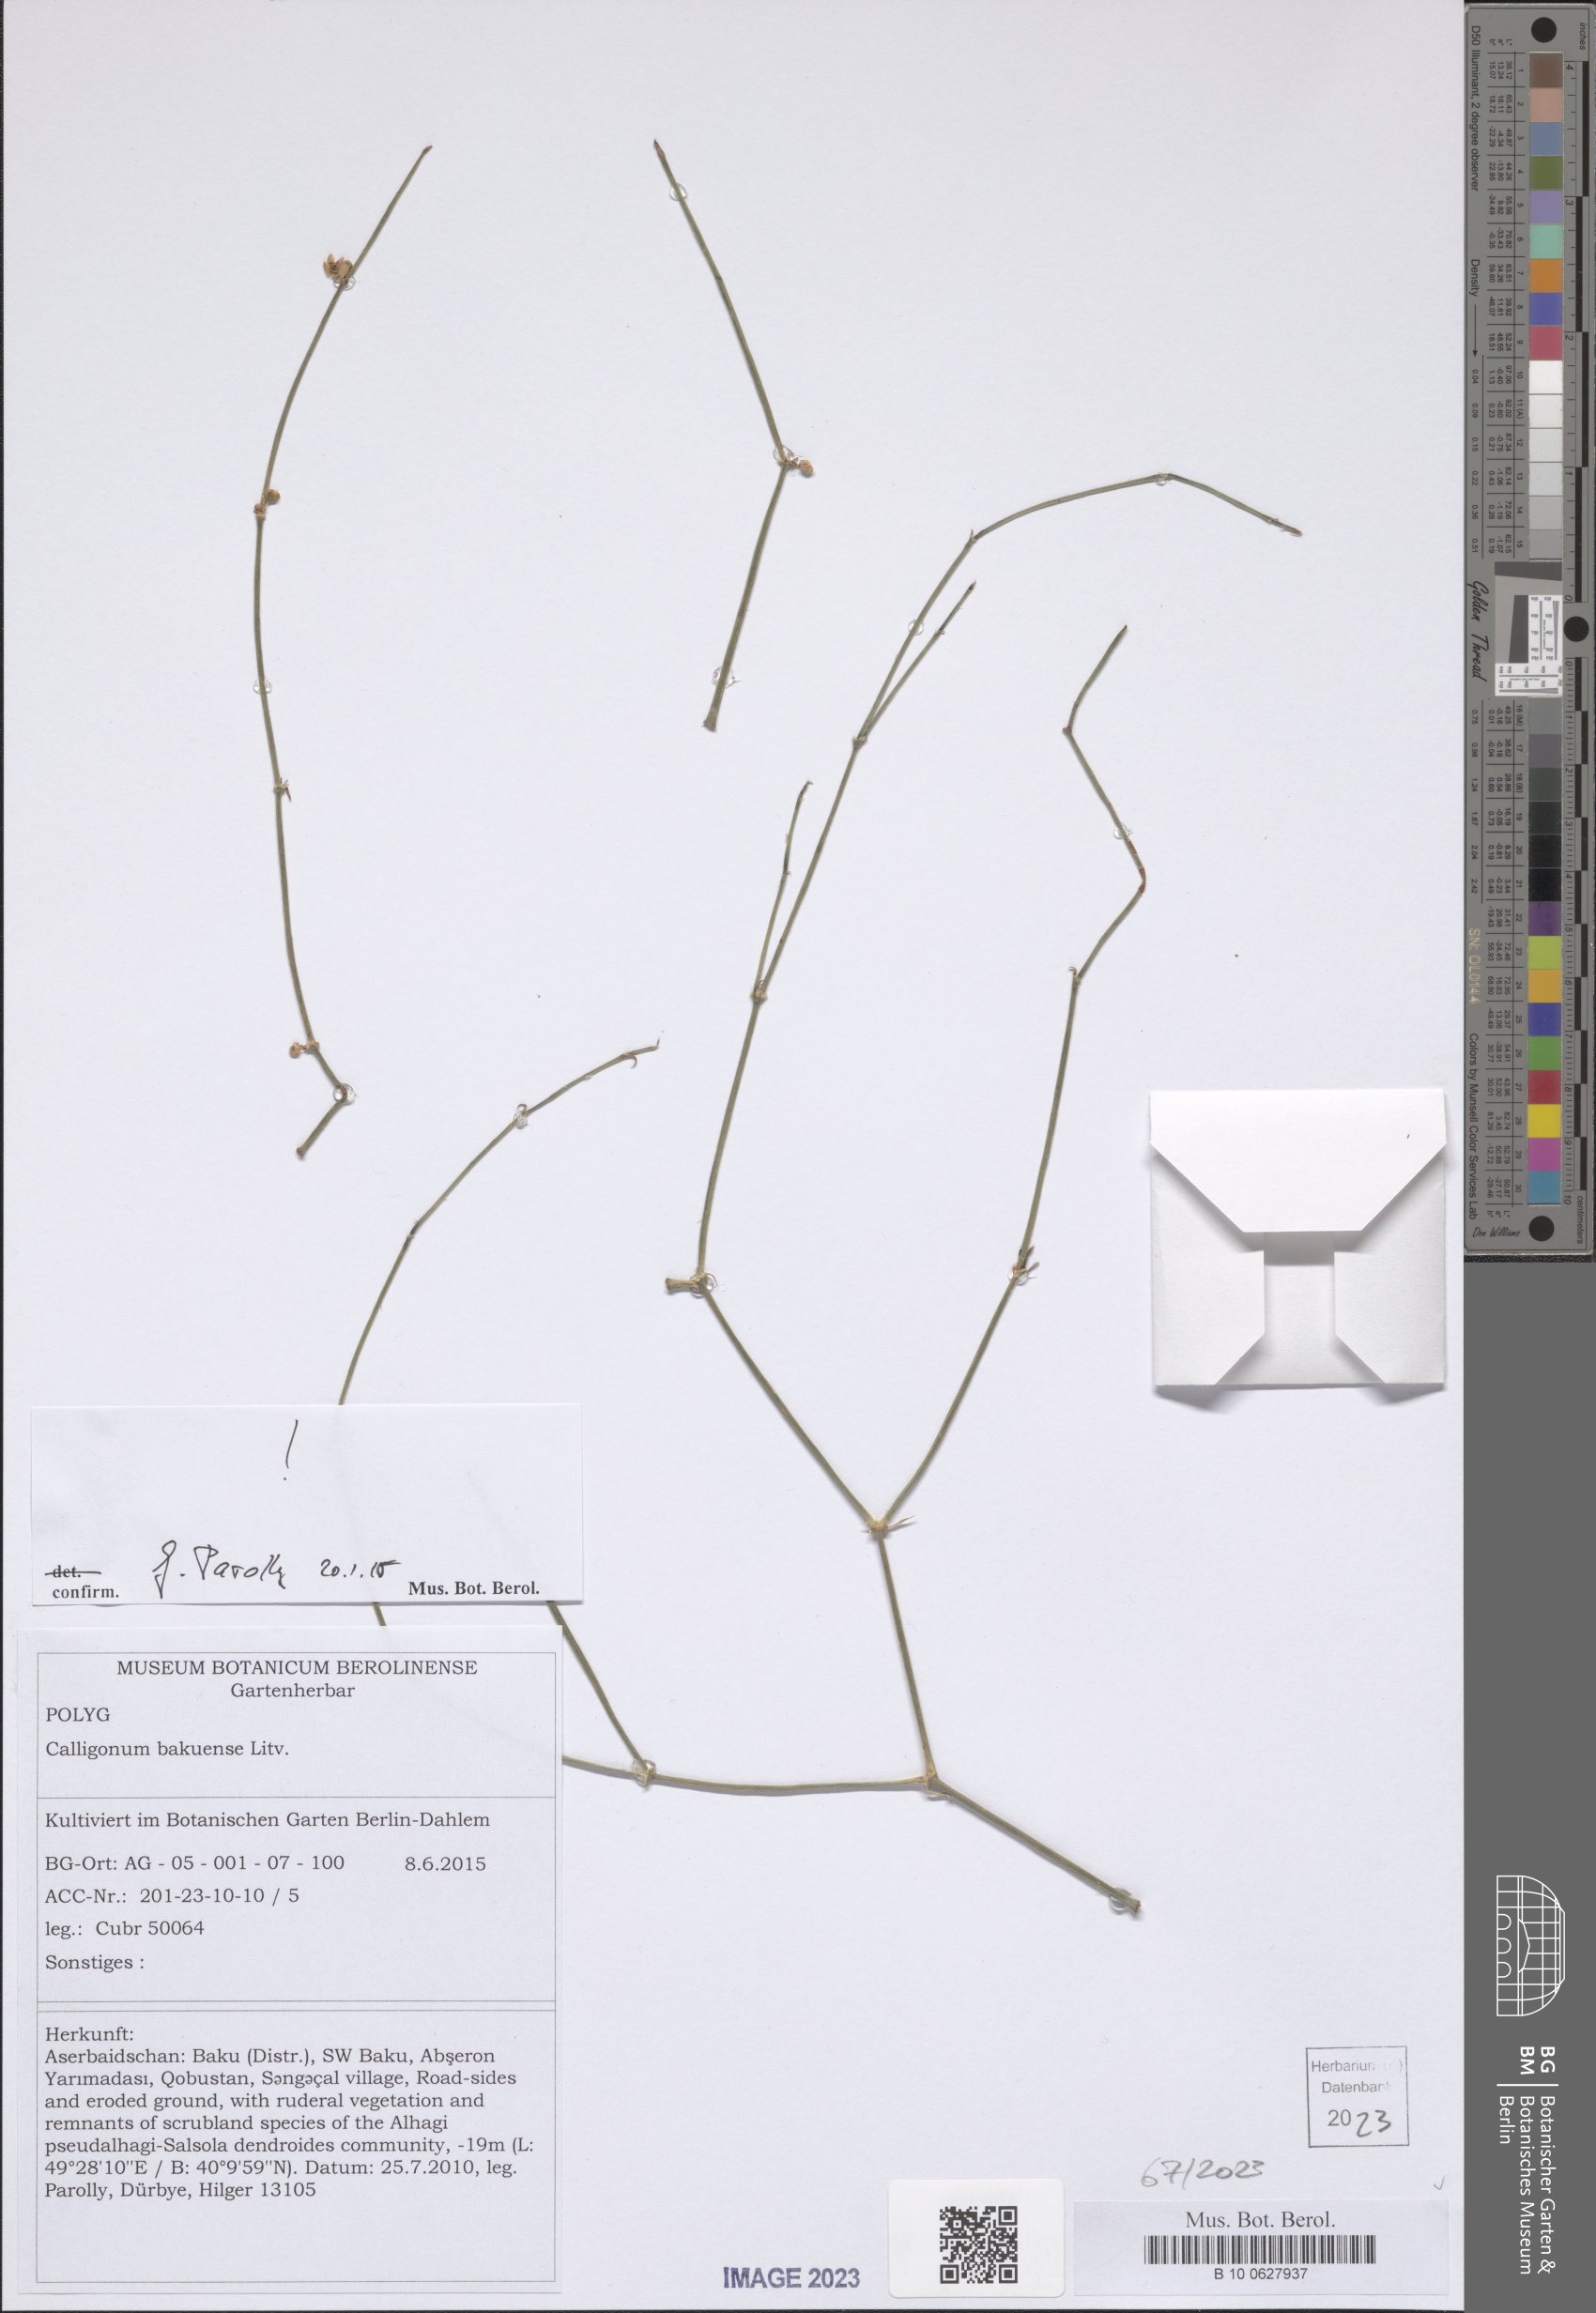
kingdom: Plantae
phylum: Tracheophyta
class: Magnoliopsida
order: Caryophyllales
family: Polygonaceae
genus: Calligonum
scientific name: Calligonum bakuense
